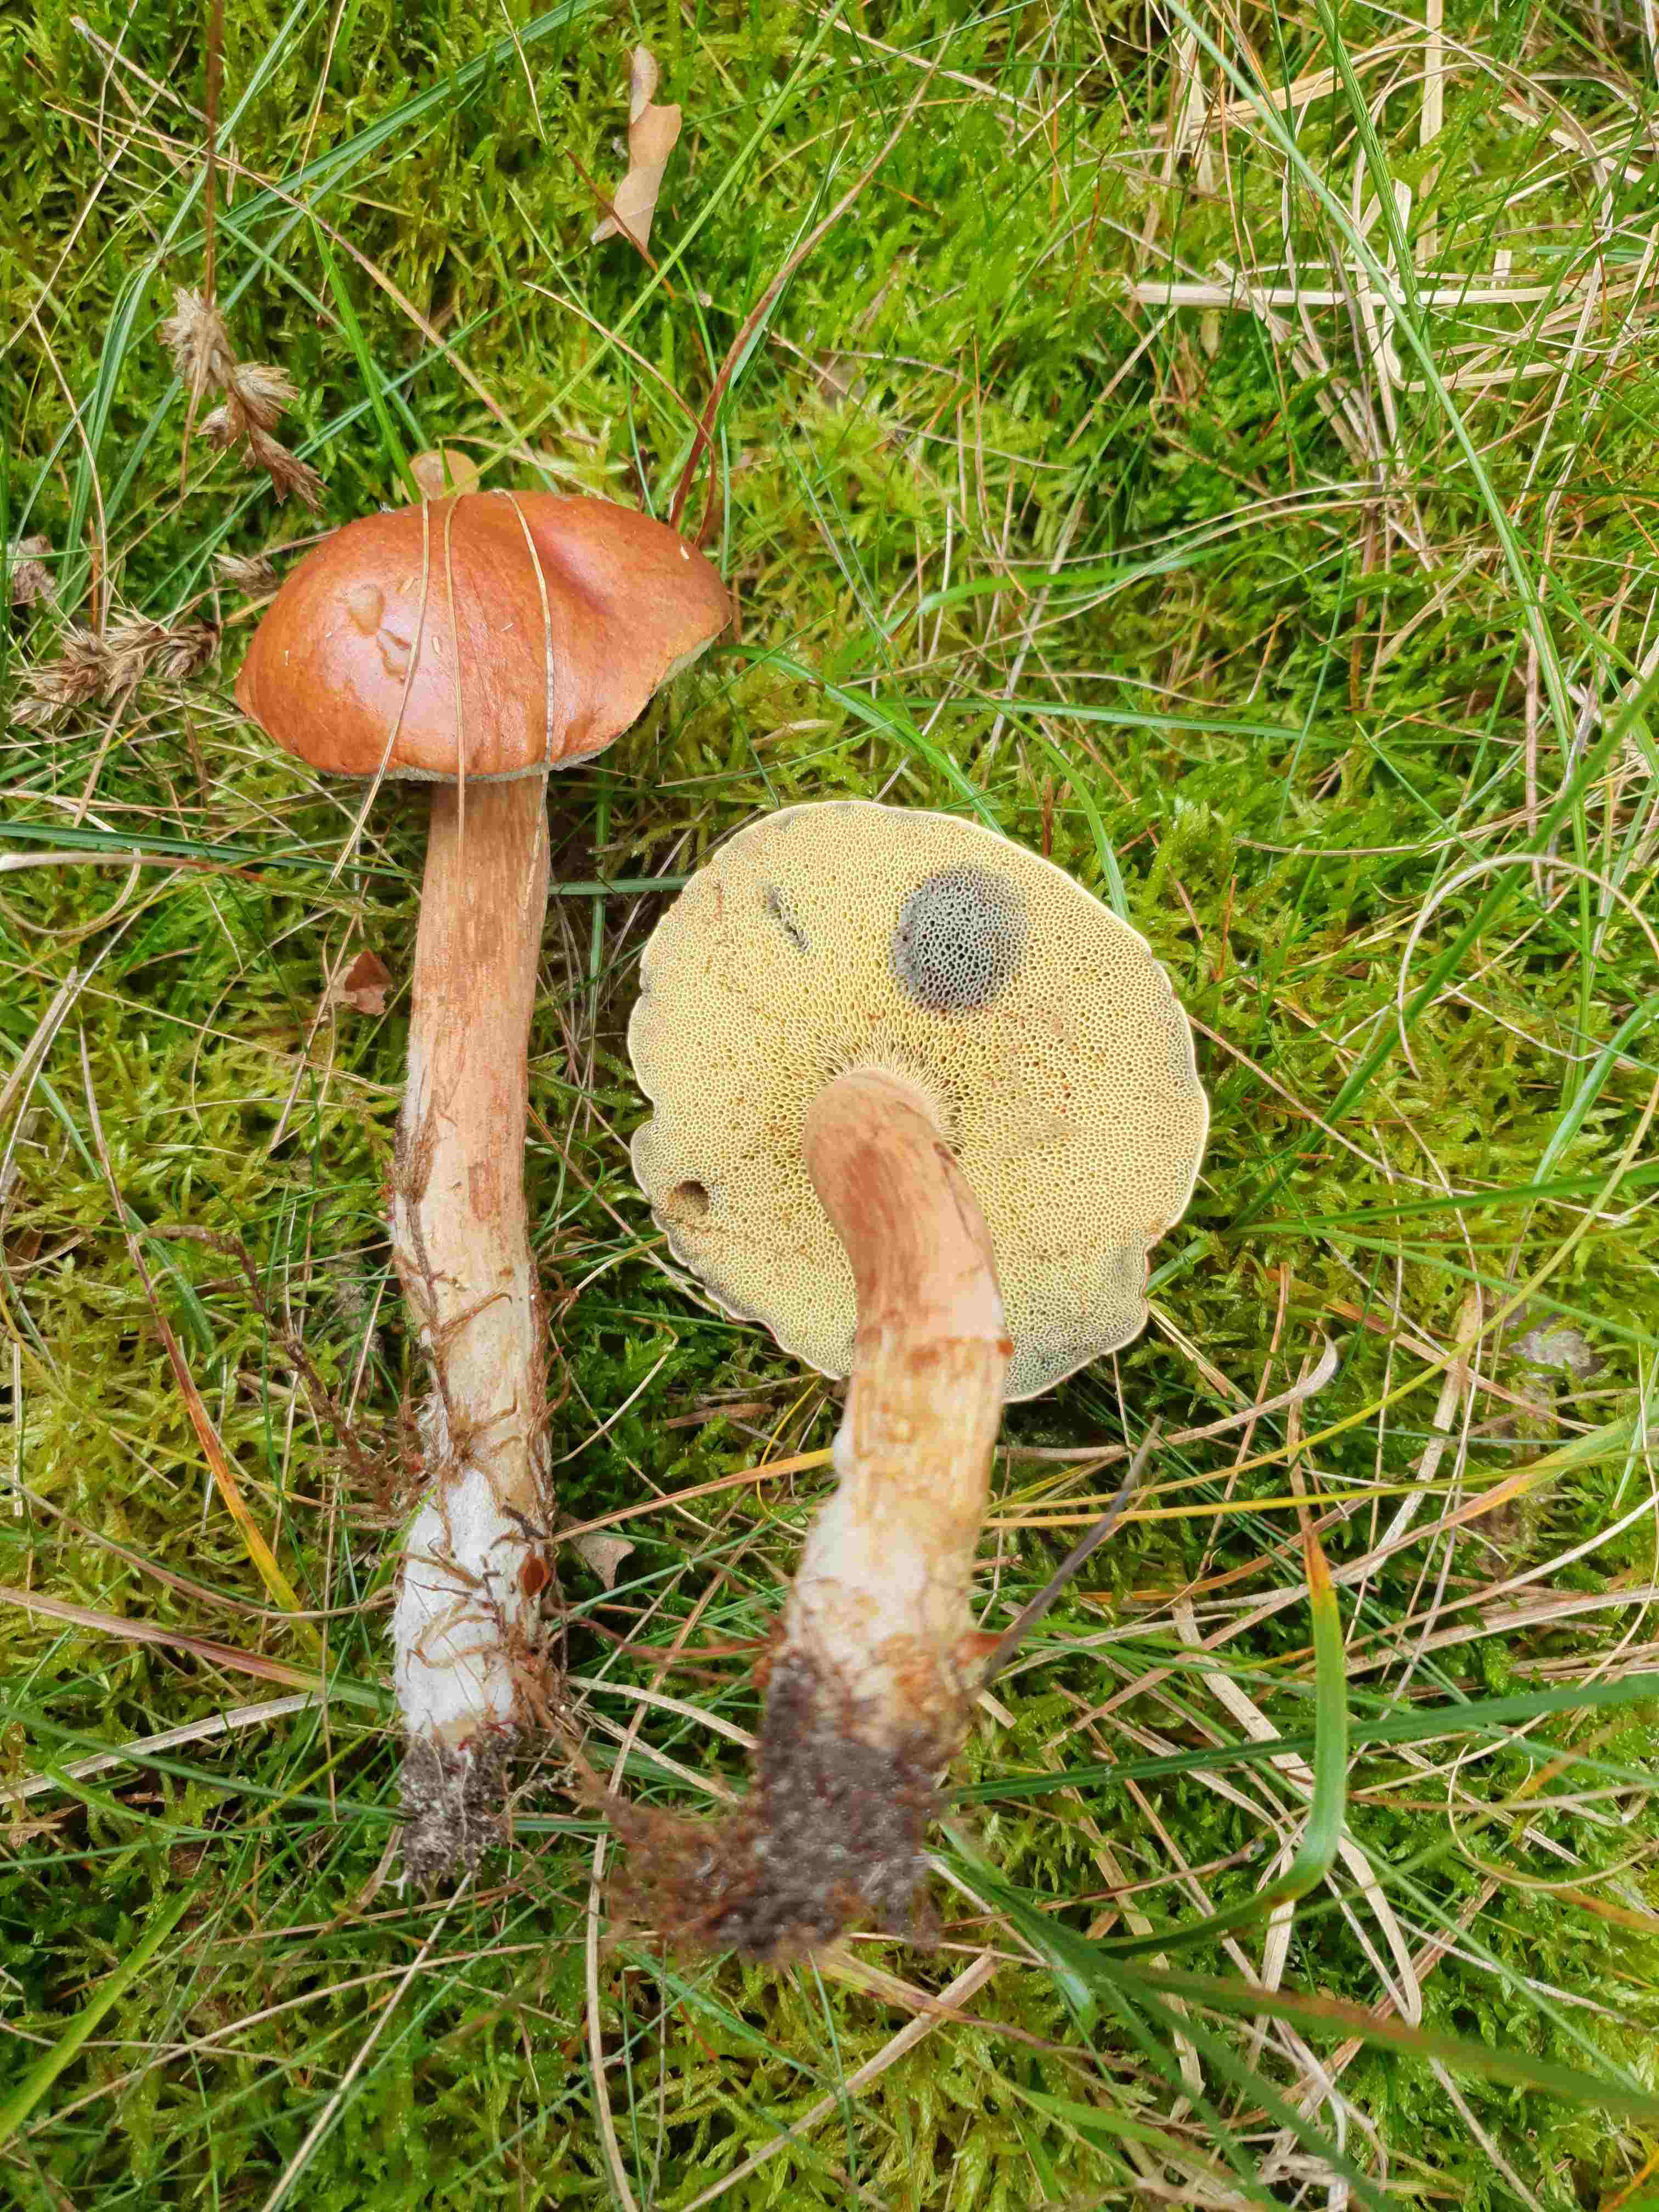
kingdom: Fungi
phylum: Basidiomycota
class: Agaricomycetes
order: Boletales
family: Boletaceae
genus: Imleria
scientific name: Imleria badia
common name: brunstokket rørhat
